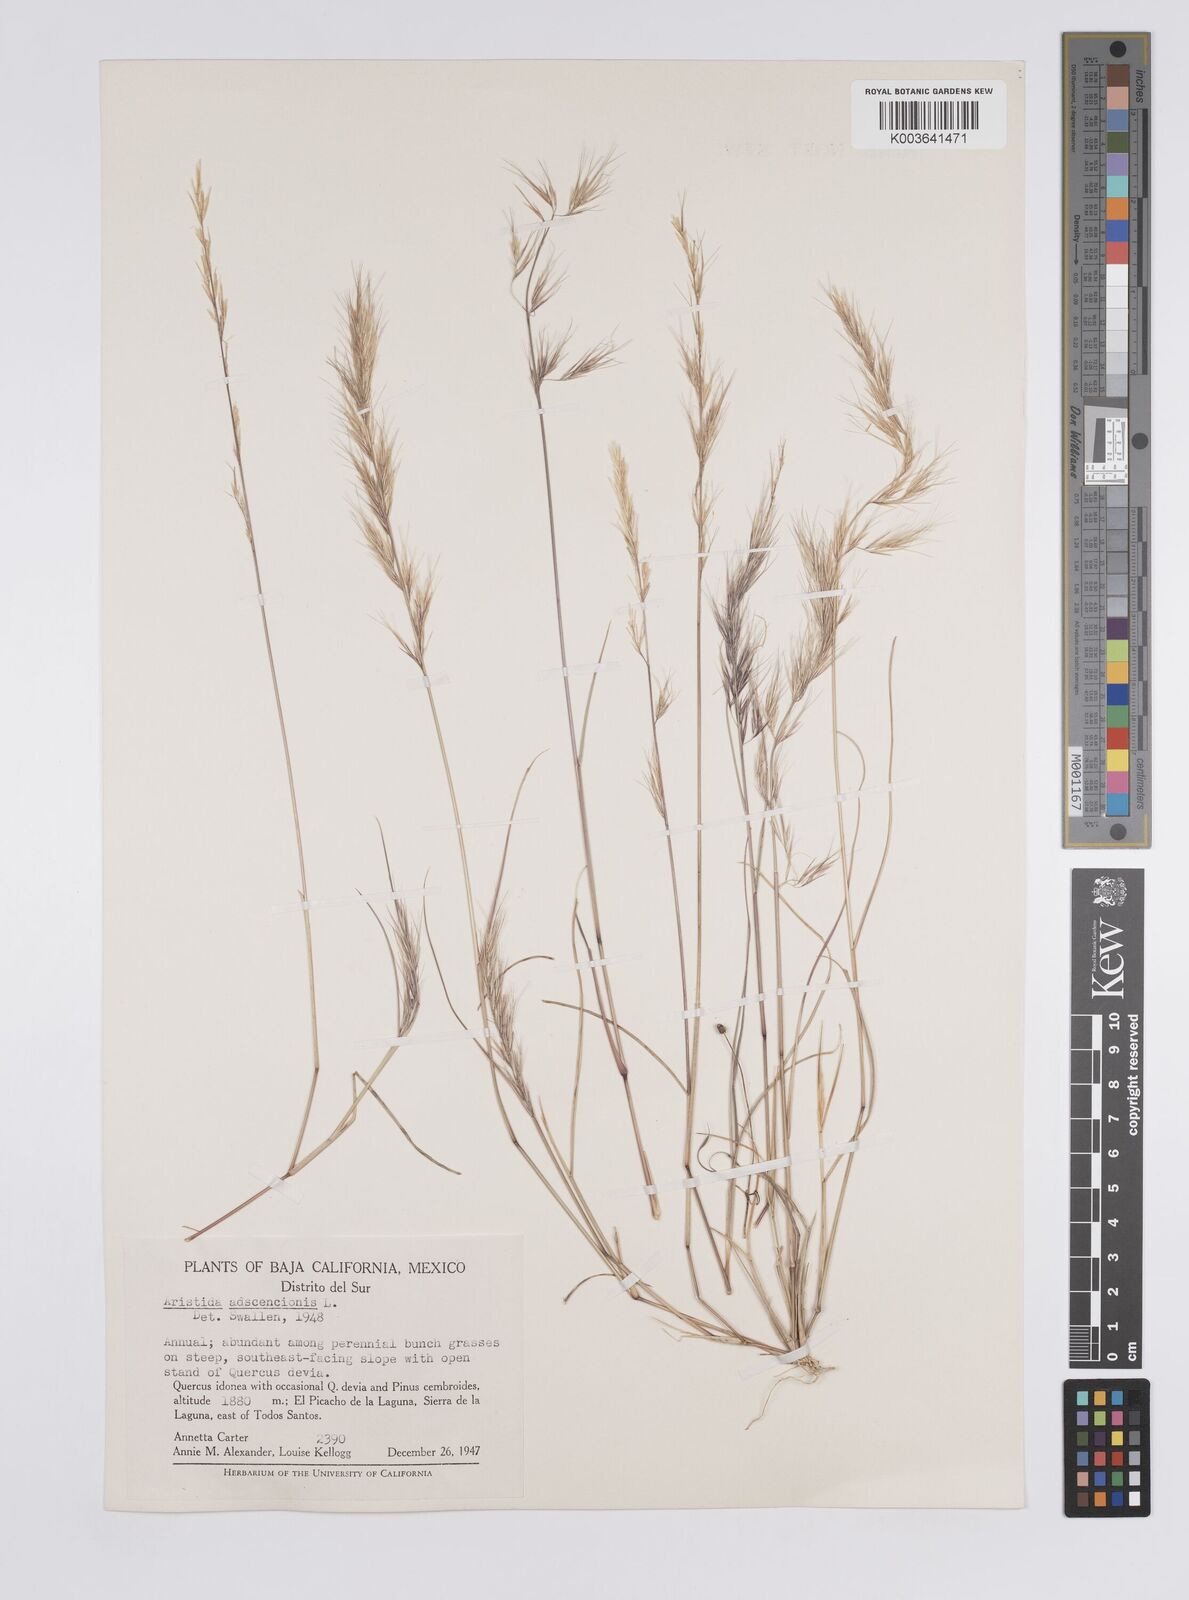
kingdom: Plantae
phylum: Tracheophyta
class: Liliopsida
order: Poales
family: Poaceae
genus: Aristida
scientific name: Aristida adscensionis
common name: Sixweeks threeawn
